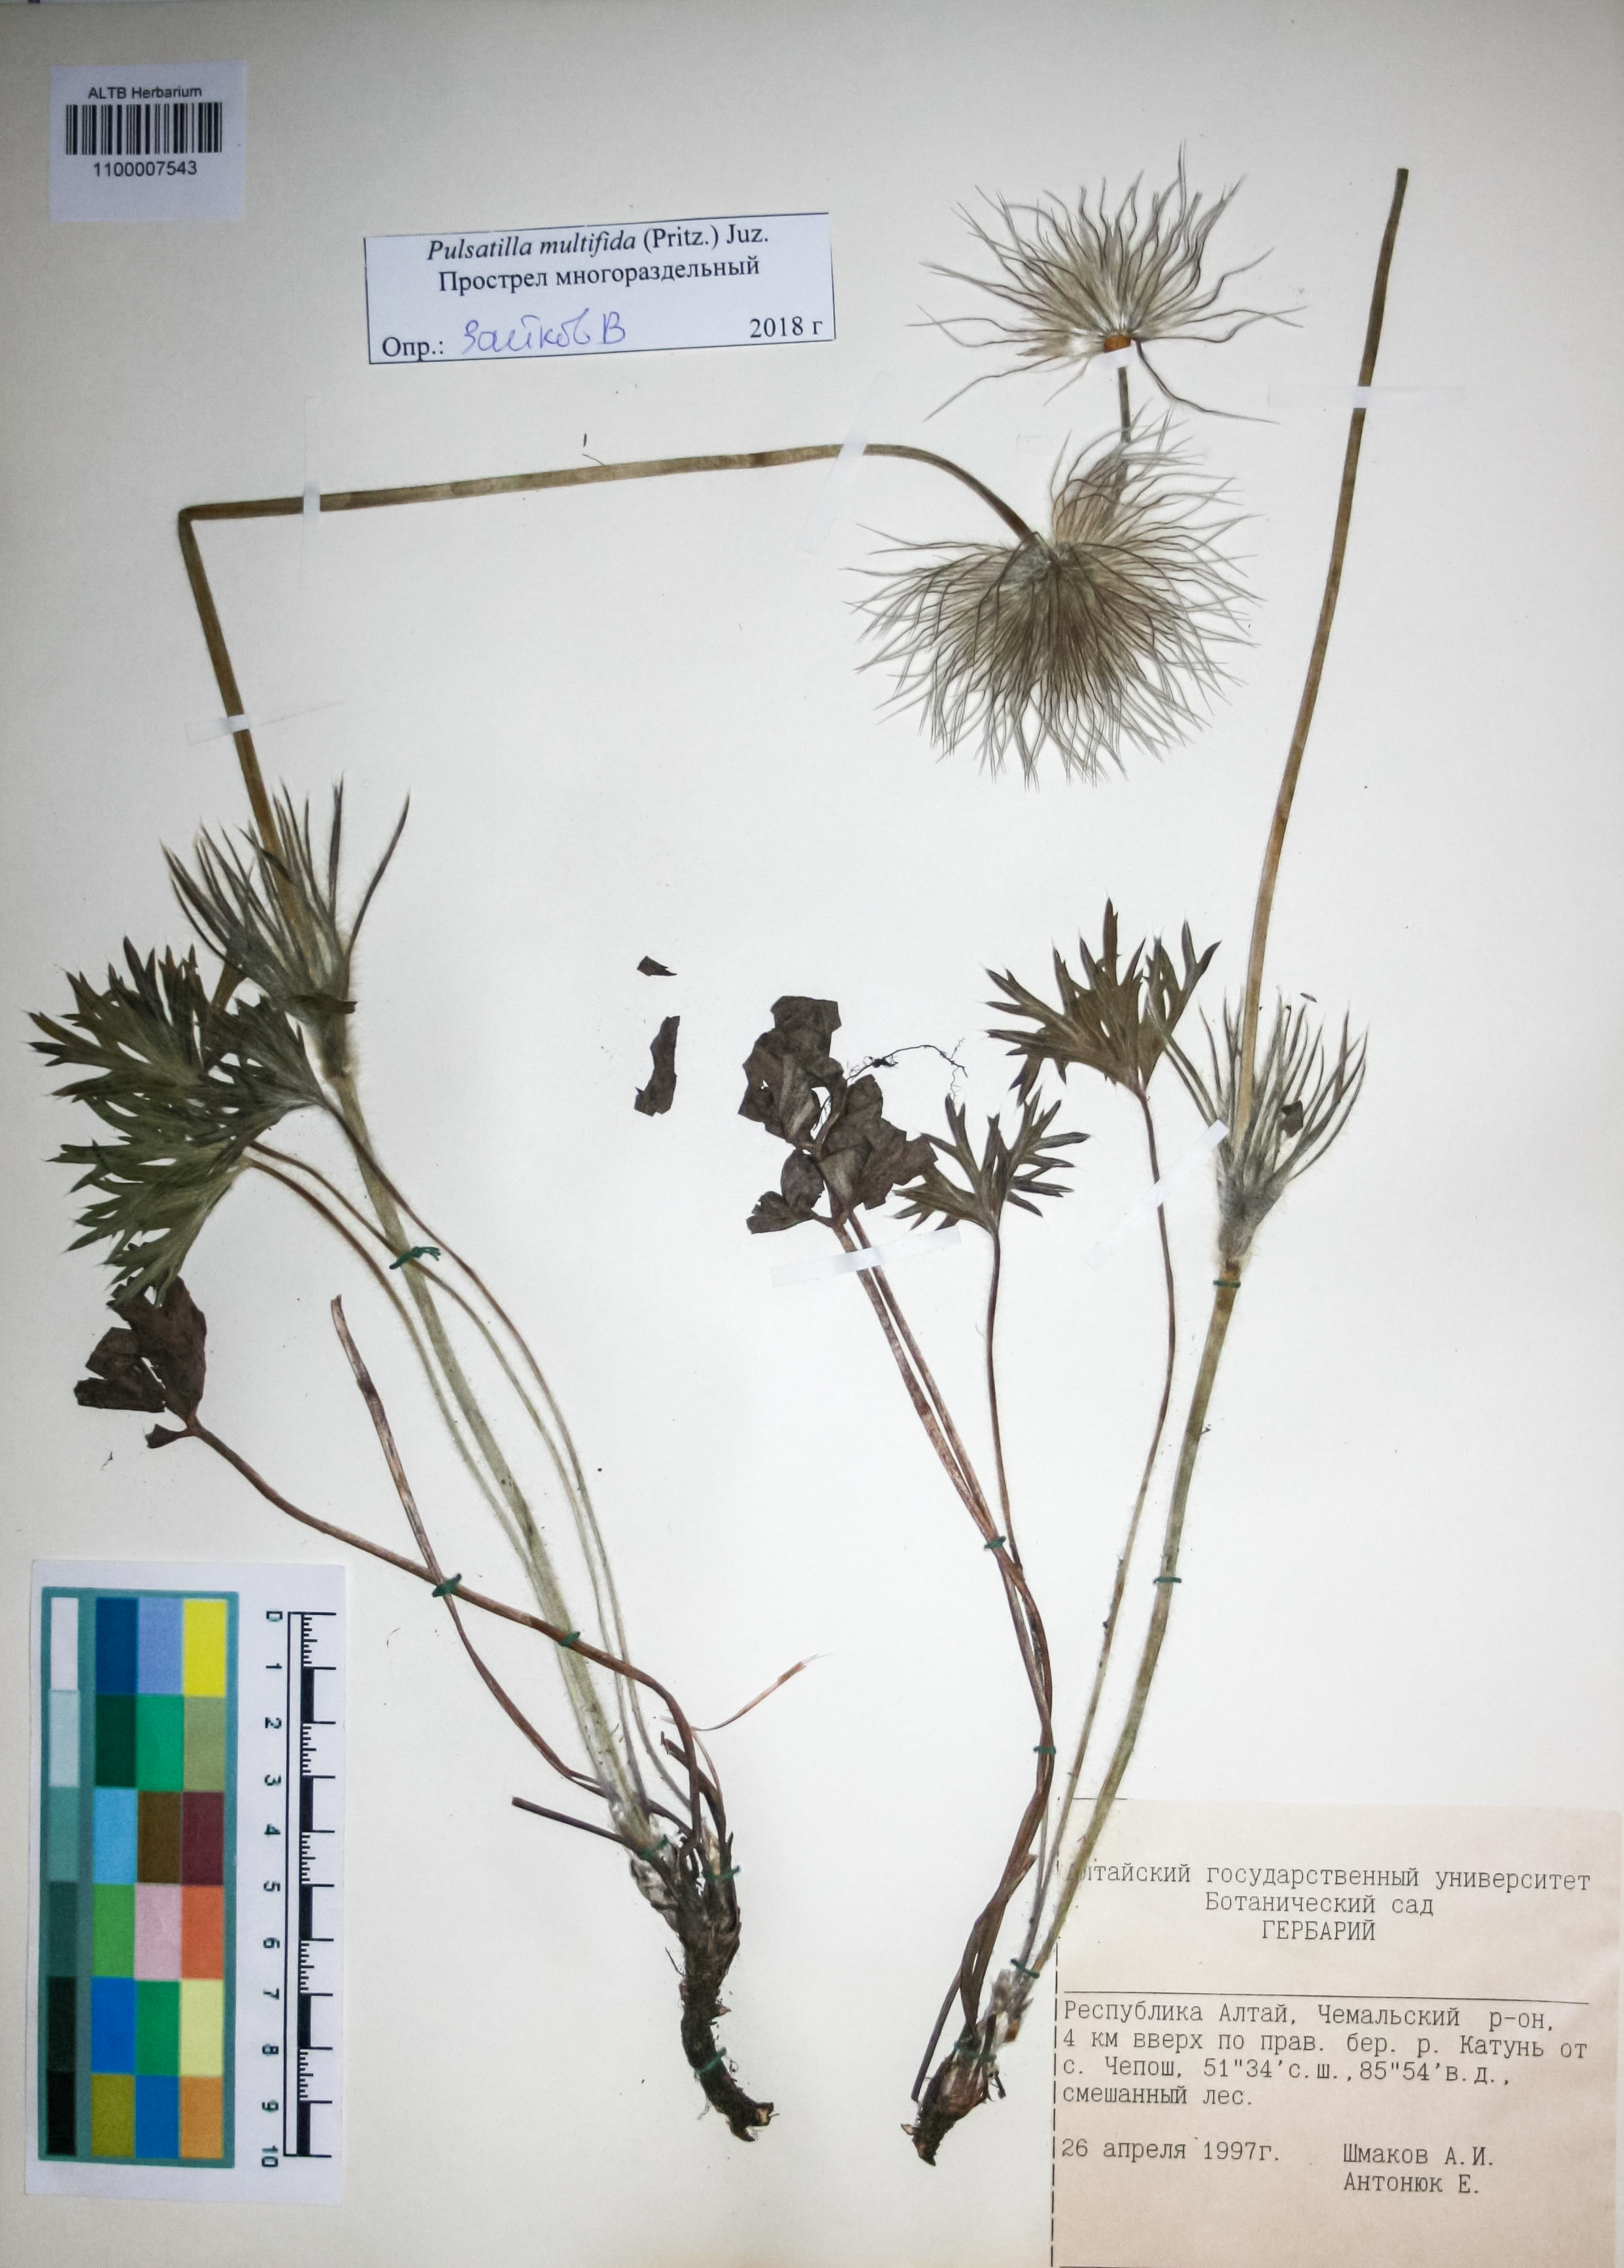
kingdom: Plantae
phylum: Tracheophyta
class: Magnoliopsida
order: Ranunculales
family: Ranunculaceae
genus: Pulsatilla
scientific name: Pulsatilla patens
